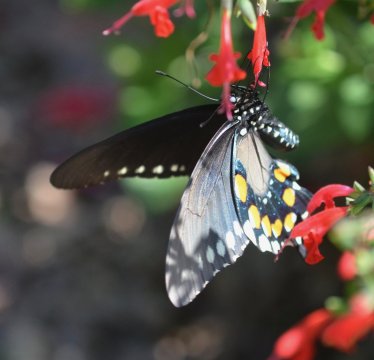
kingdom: Animalia
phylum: Arthropoda
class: Insecta
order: Lepidoptera
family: Papilionidae
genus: Battus
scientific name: Battus philenor
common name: Pipevine Swallowtail
